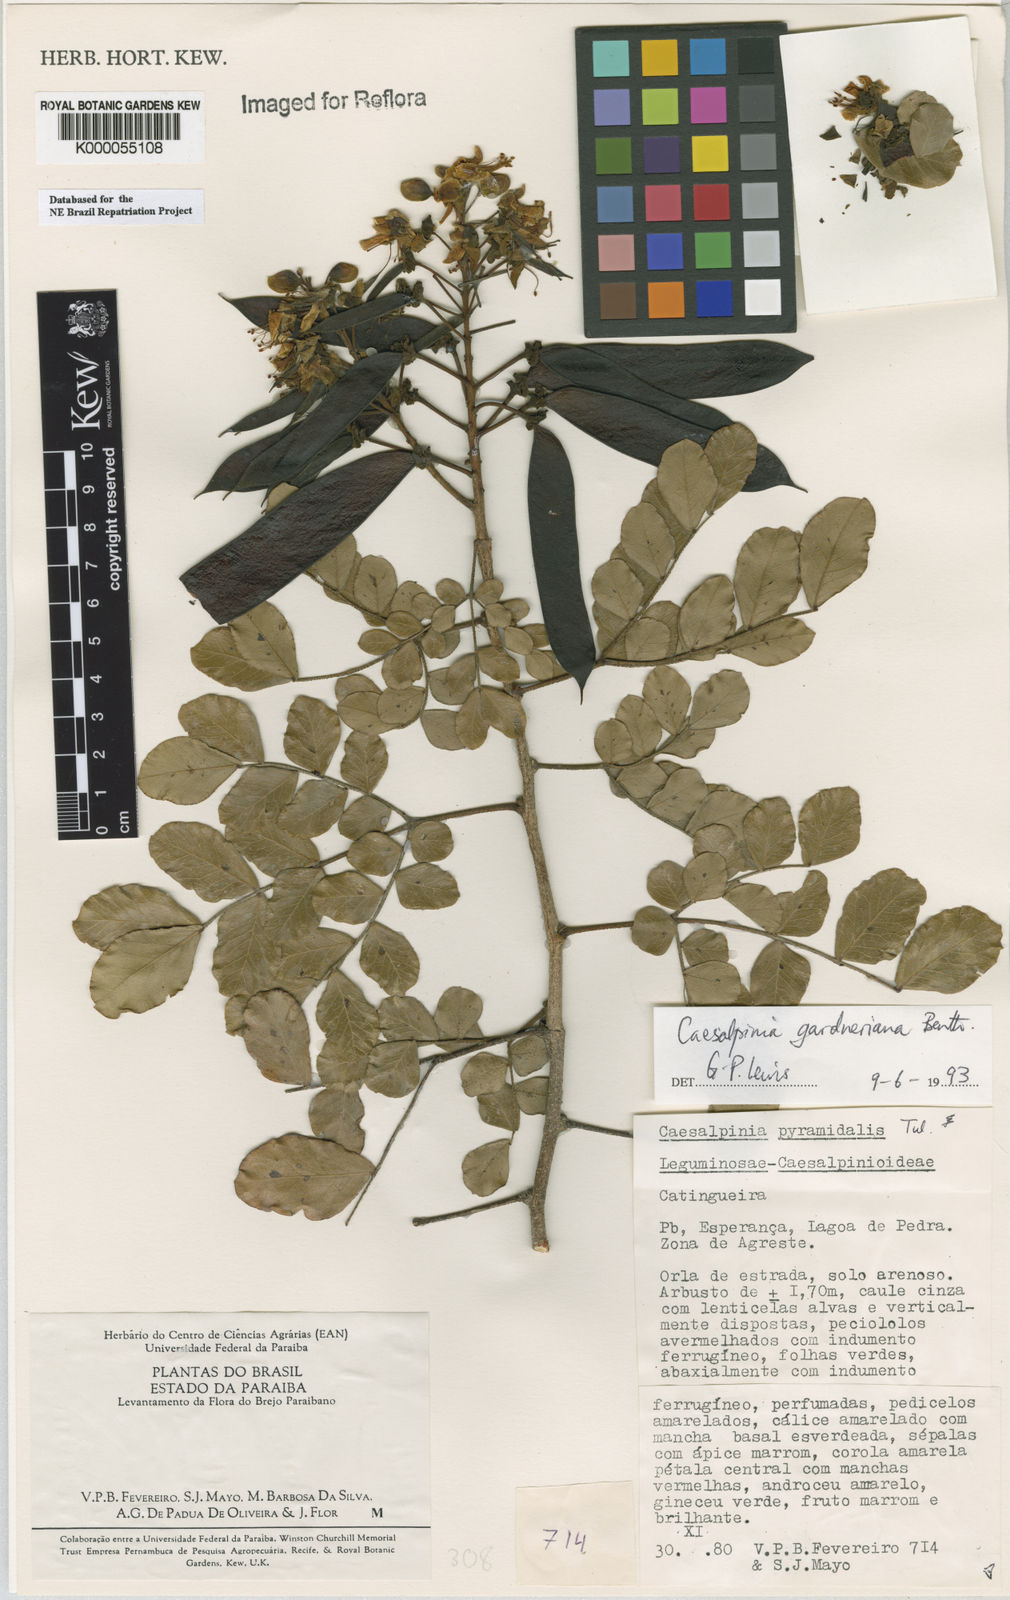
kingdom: Plantae
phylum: Tracheophyta
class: Magnoliopsida
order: Fabales
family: Fabaceae
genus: Cenostigma
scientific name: Cenostigma nordestinum
